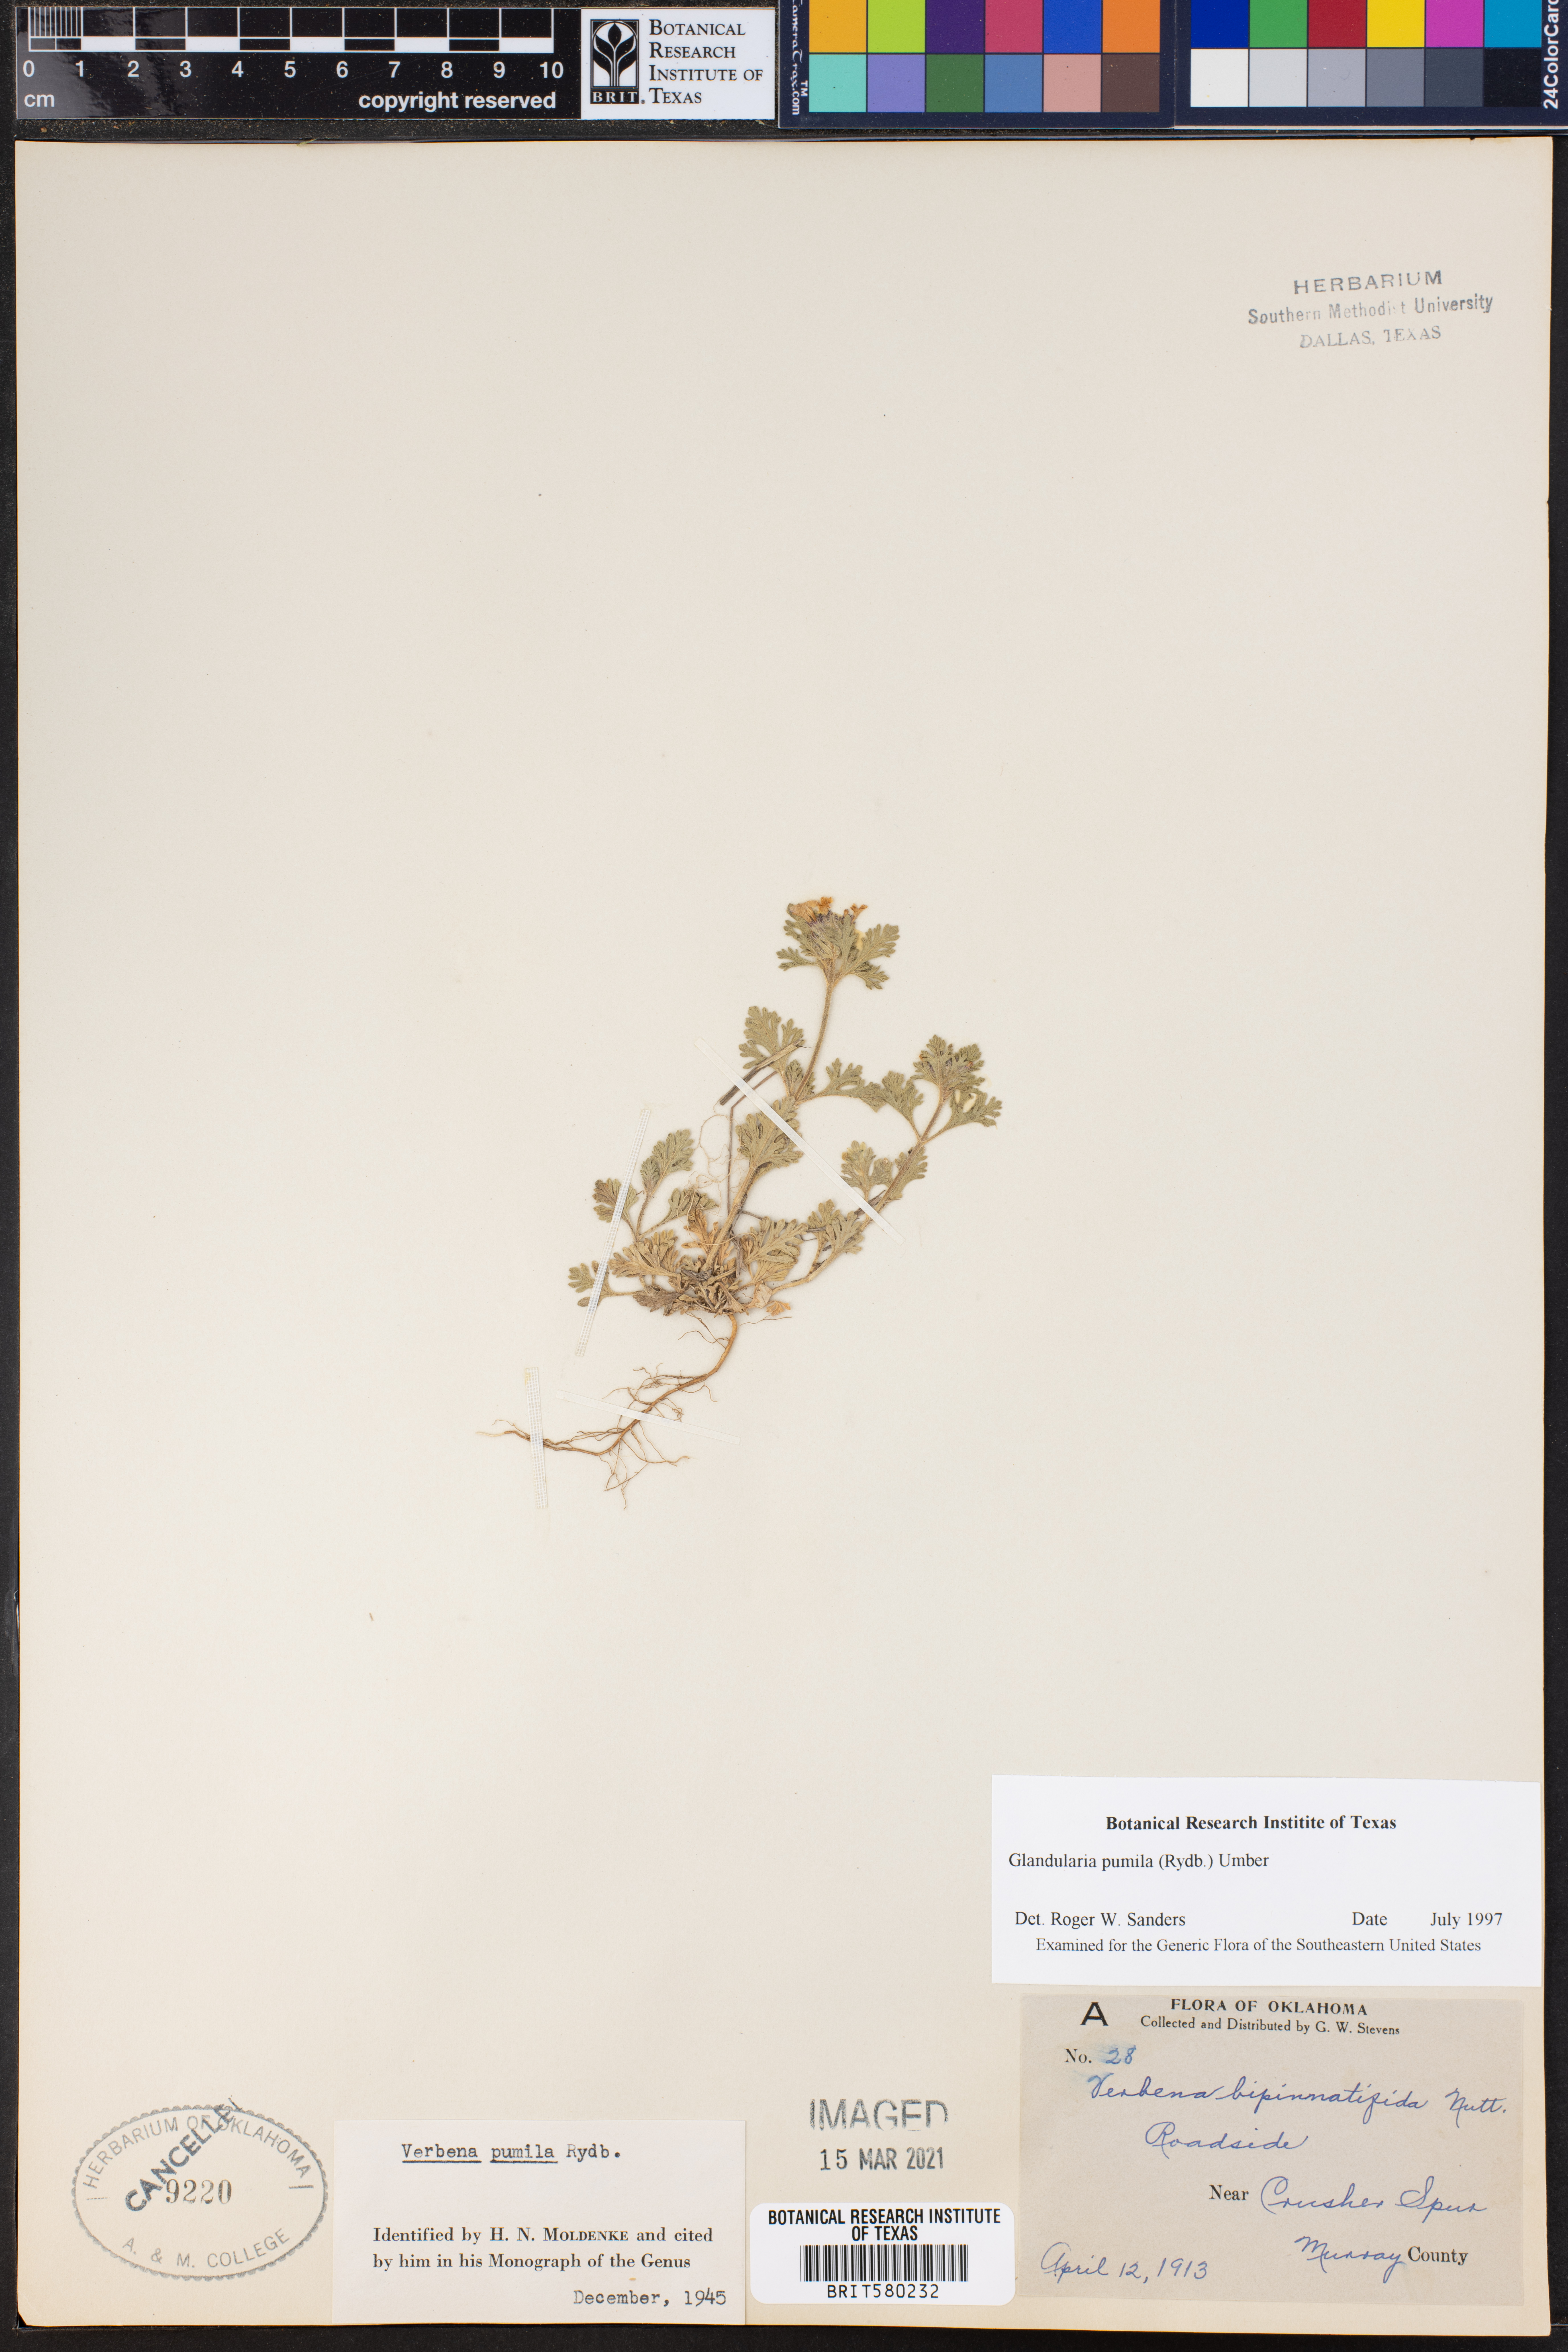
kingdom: Plantae
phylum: Tracheophyta
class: Magnoliopsida
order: Lamiales
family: Verbenaceae
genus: Verbena
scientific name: Verbena pumila
